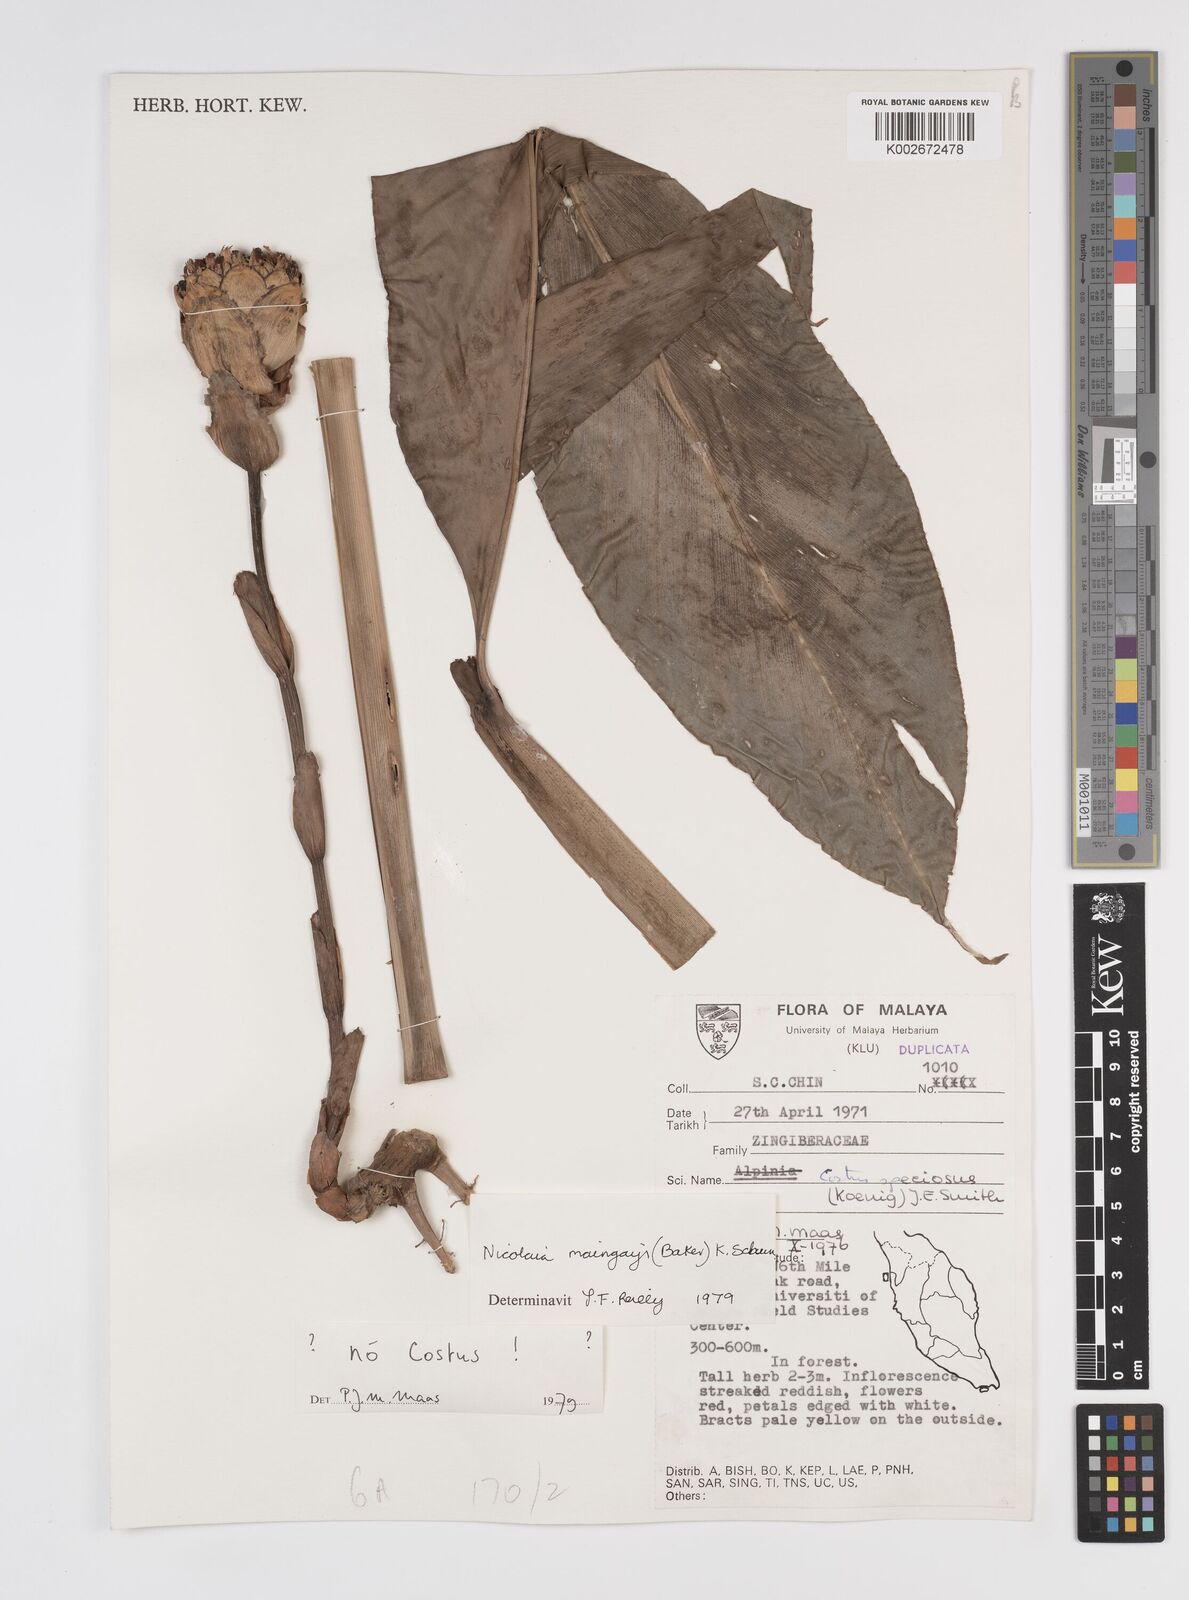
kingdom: Plantae
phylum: Tracheophyta
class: Liliopsida
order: Zingiberales
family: Zingiberaceae
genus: Etlingera
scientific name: Etlingera maingayi
